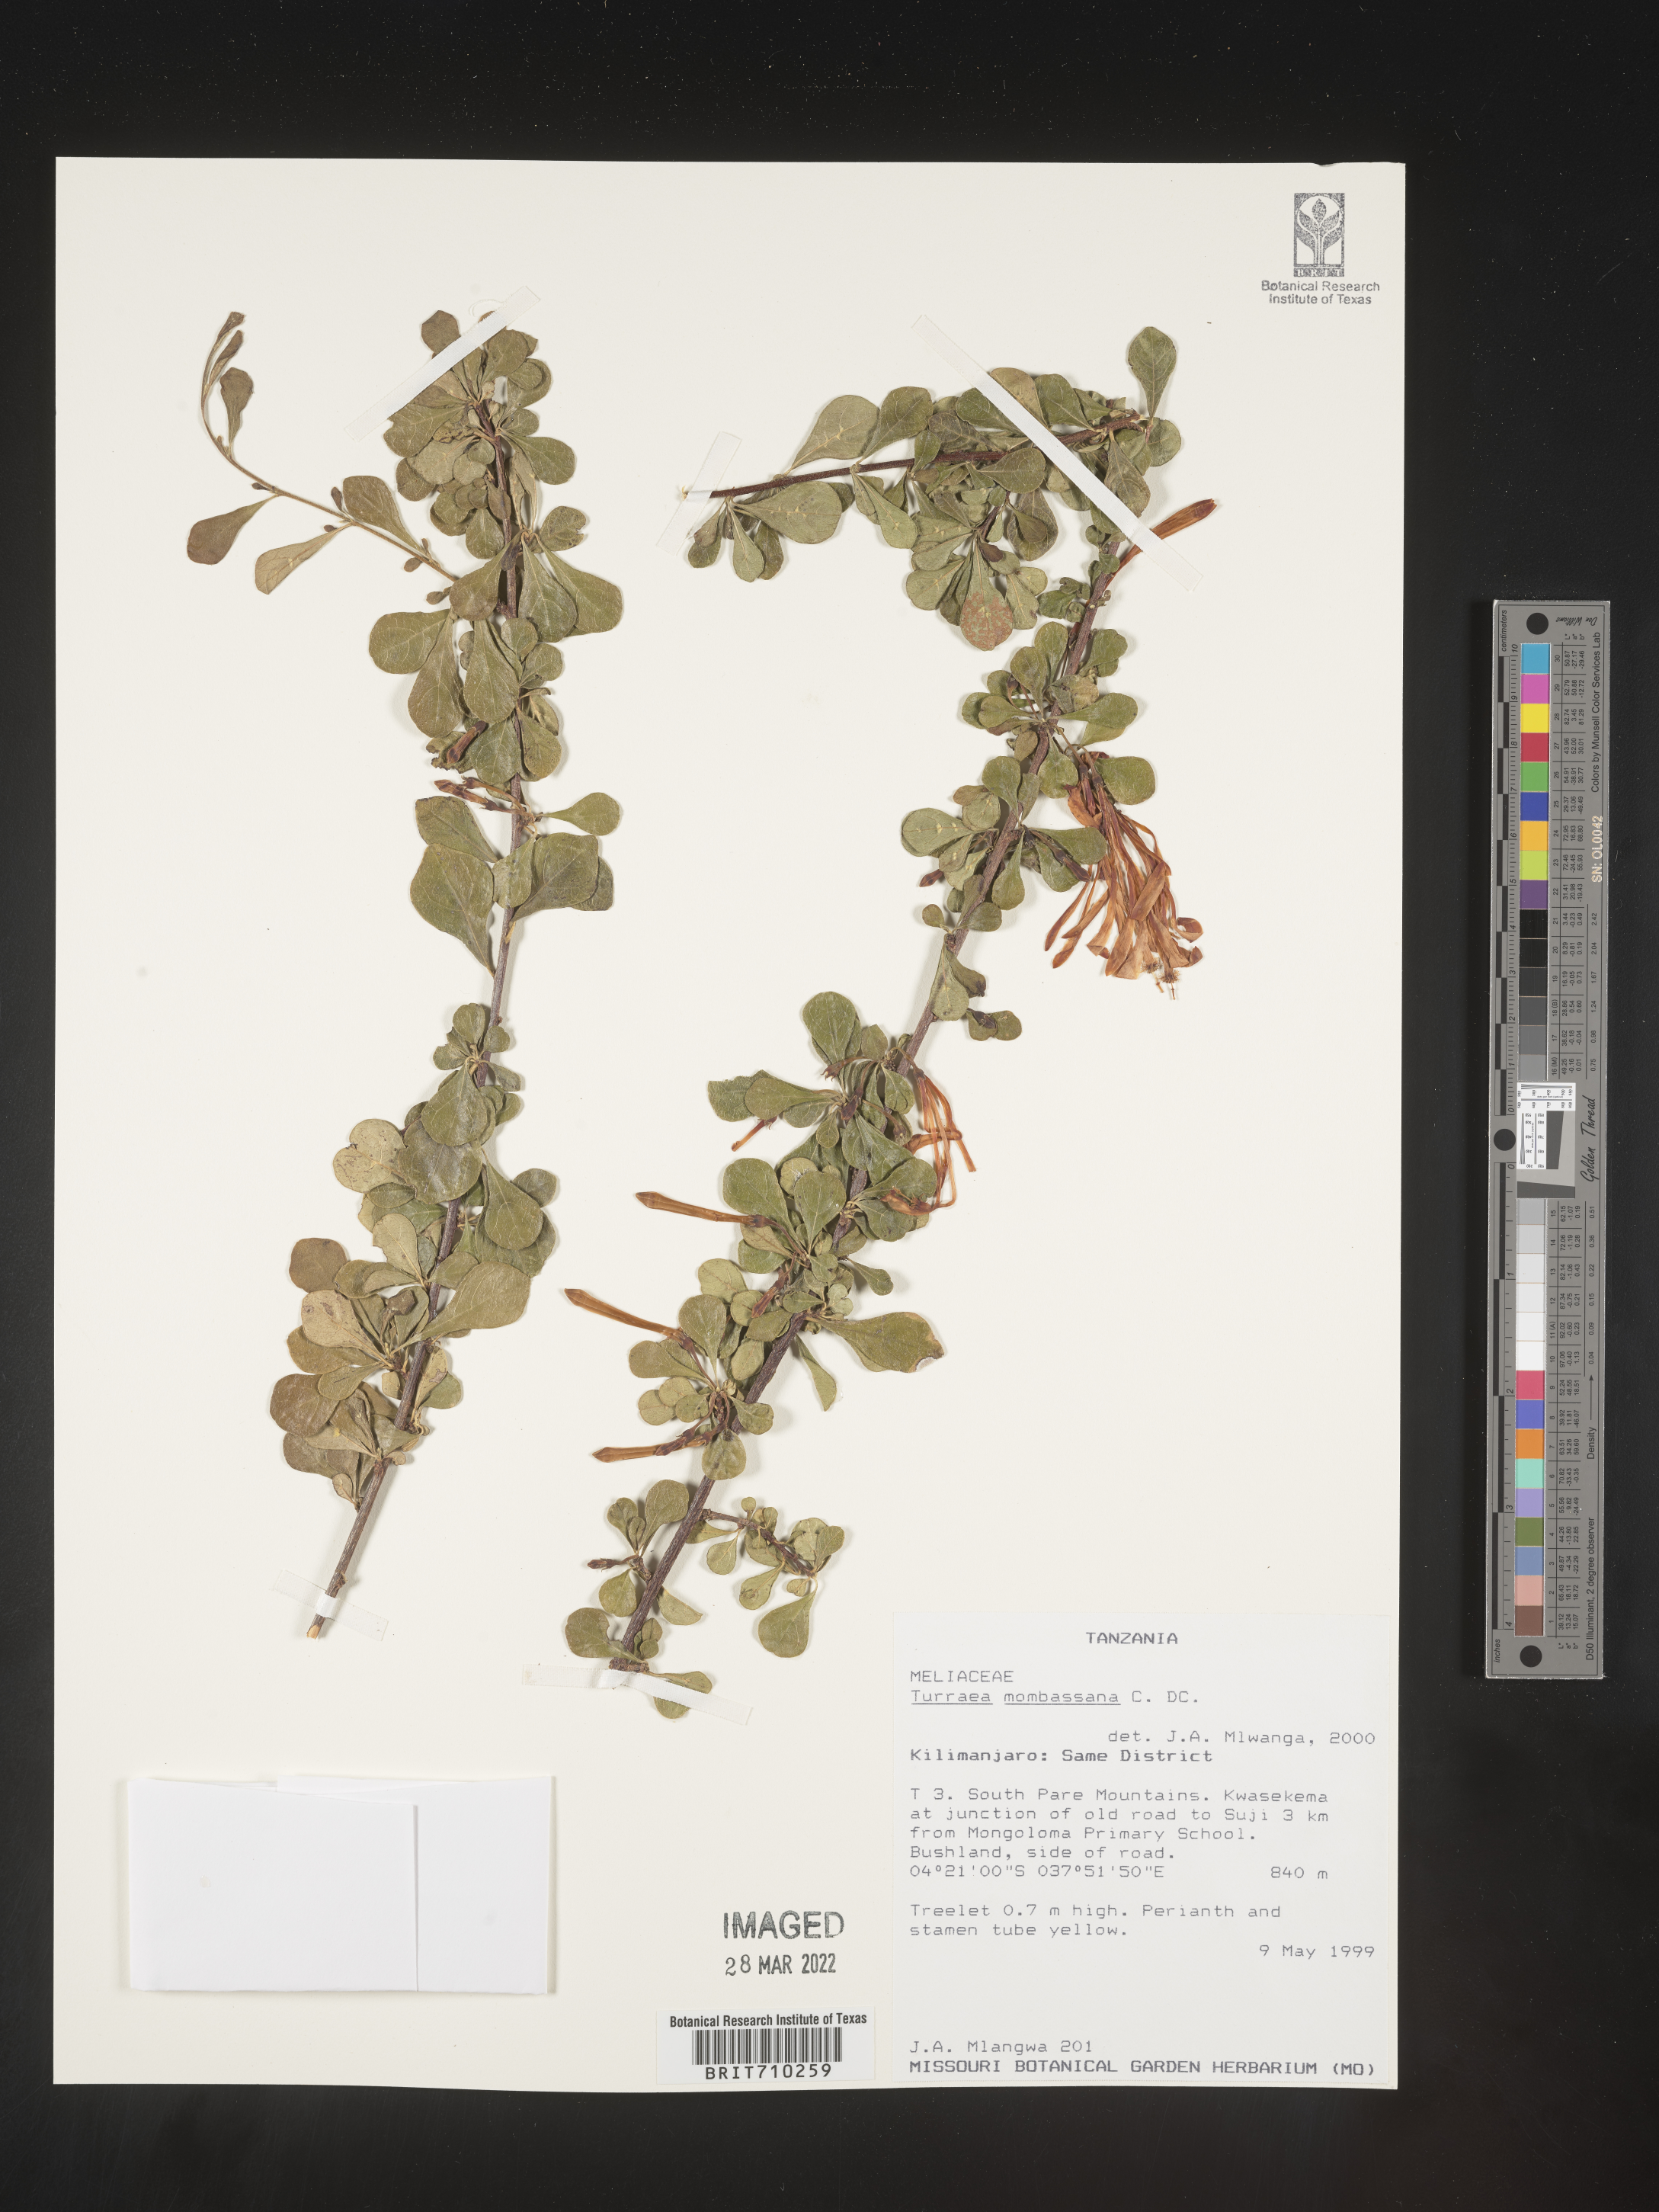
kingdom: Plantae
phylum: Tracheophyta
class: Magnoliopsida
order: Sapindales
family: Meliaceae
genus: Turraea
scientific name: Turraea
